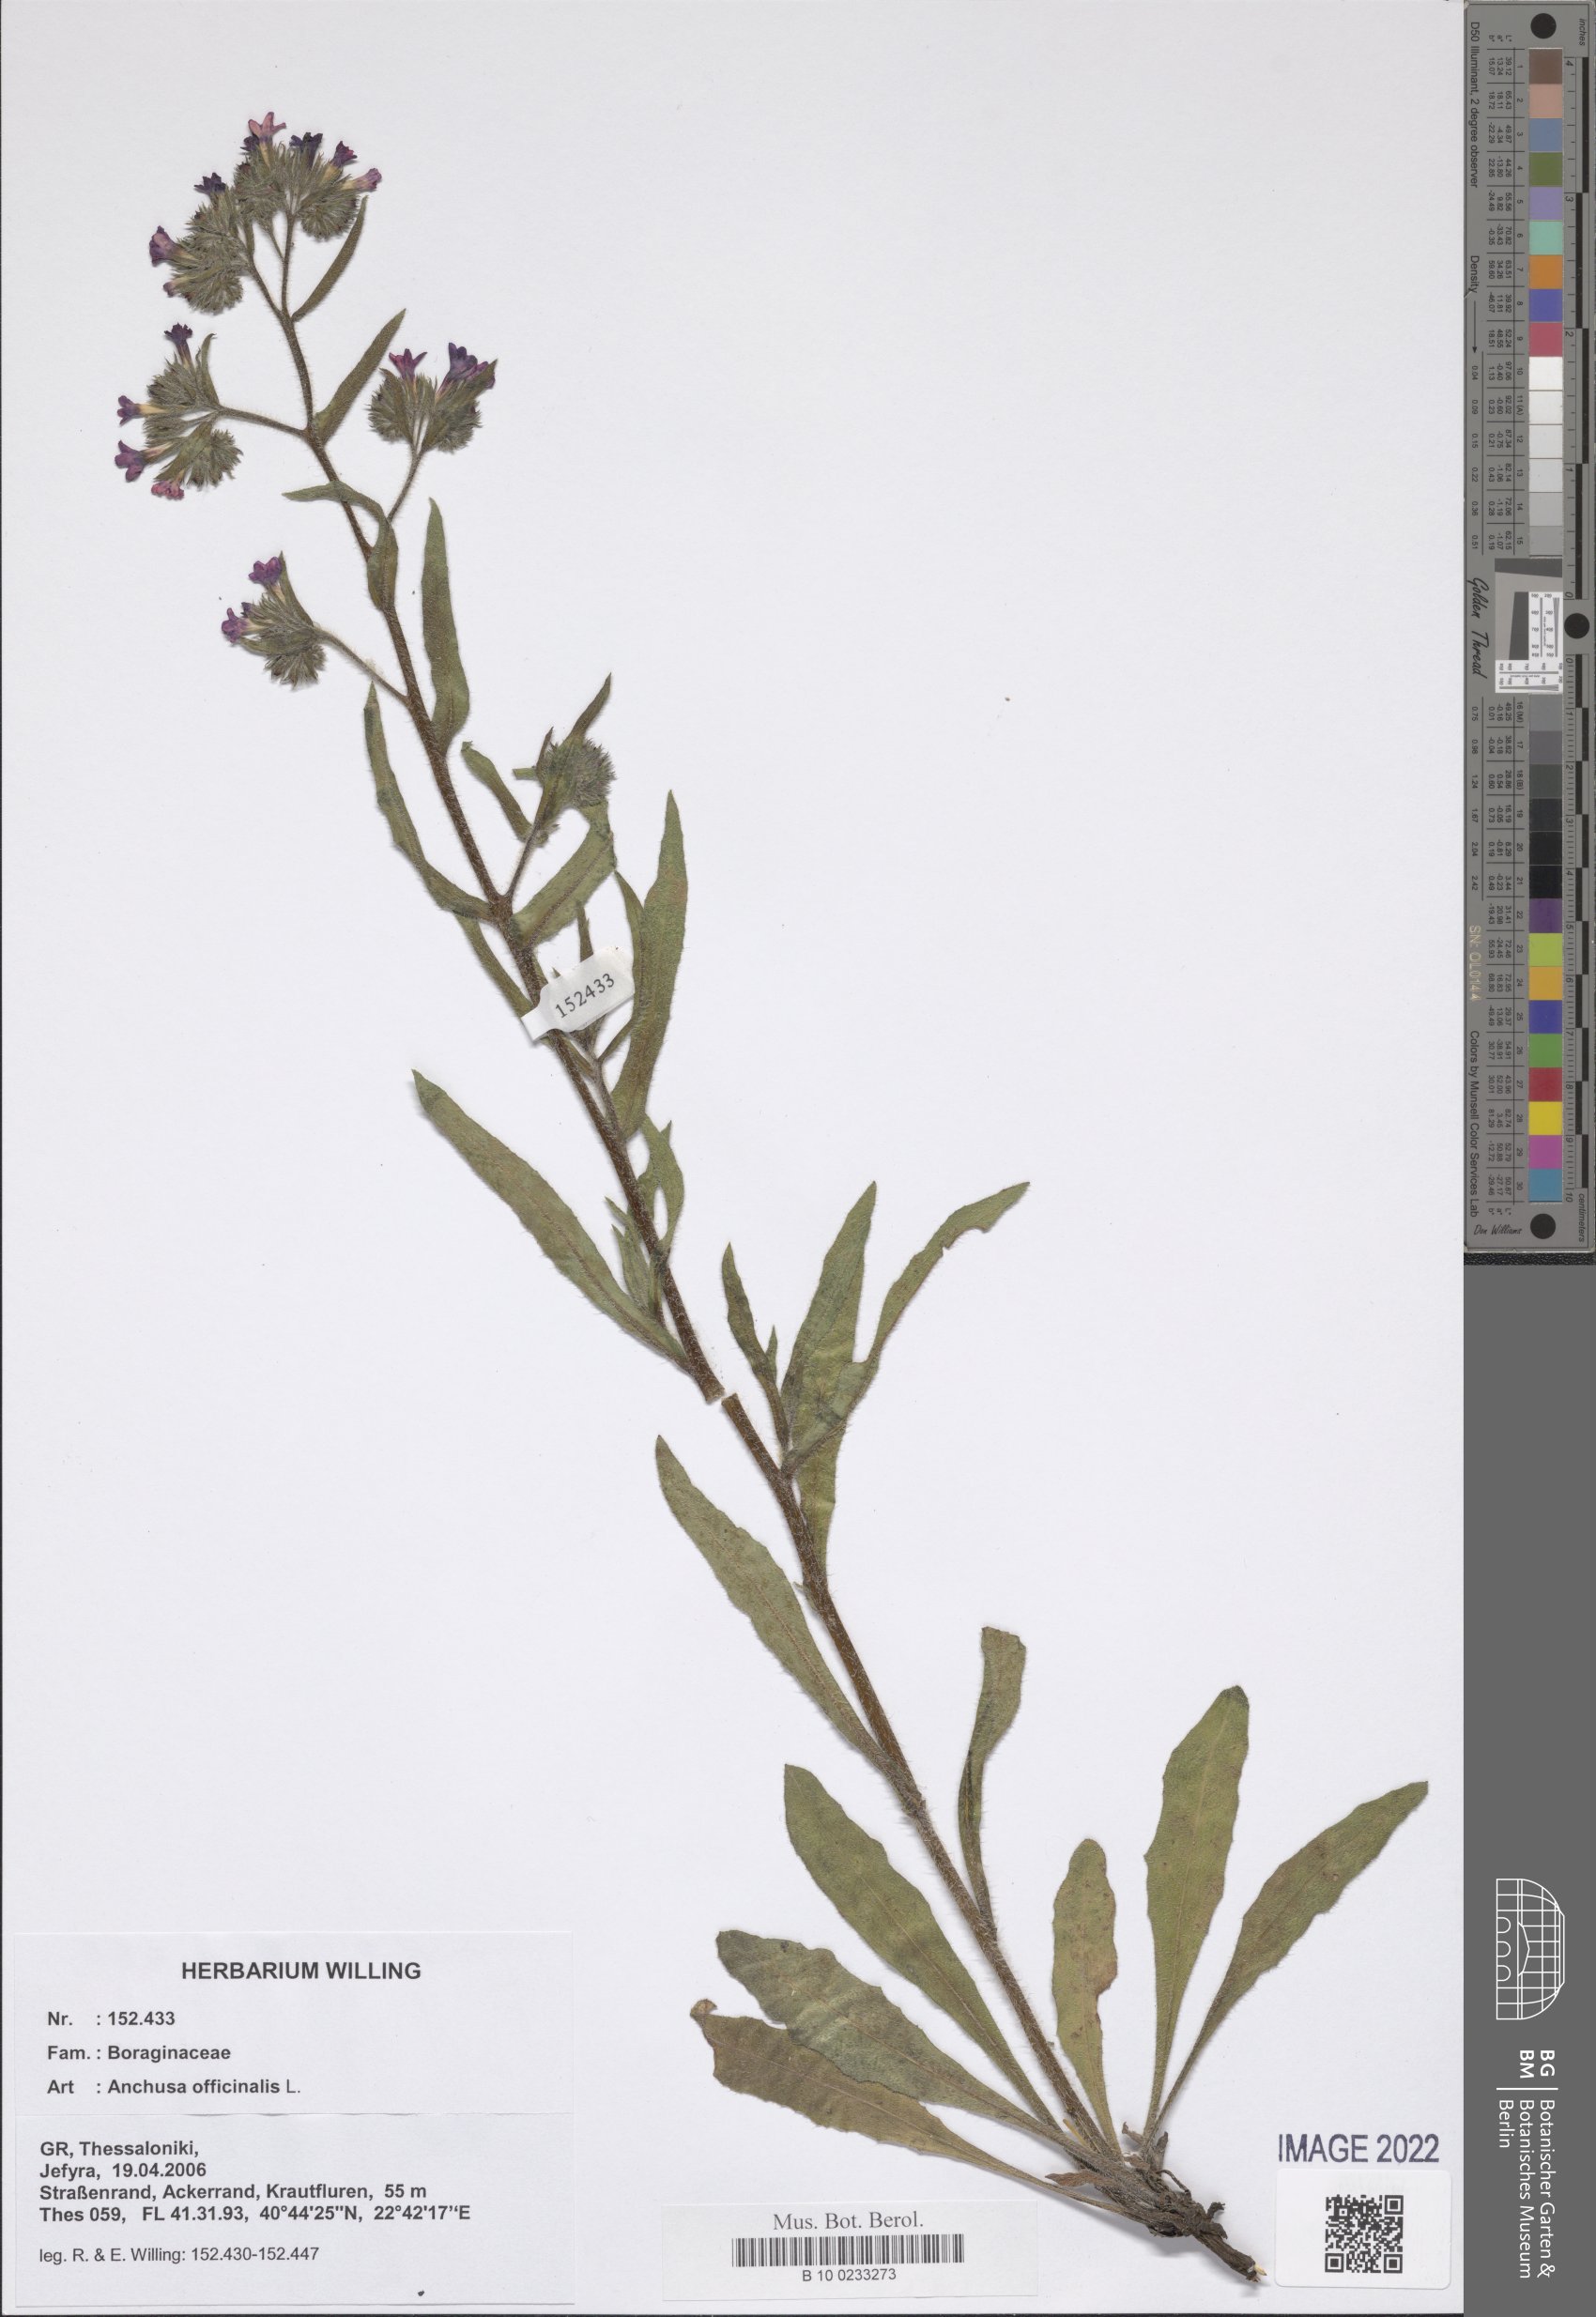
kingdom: Plantae
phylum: Tracheophyta
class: Magnoliopsida
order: Boraginales
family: Boraginaceae
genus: Anchusa
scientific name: Anchusa officinalis
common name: Alkanet
